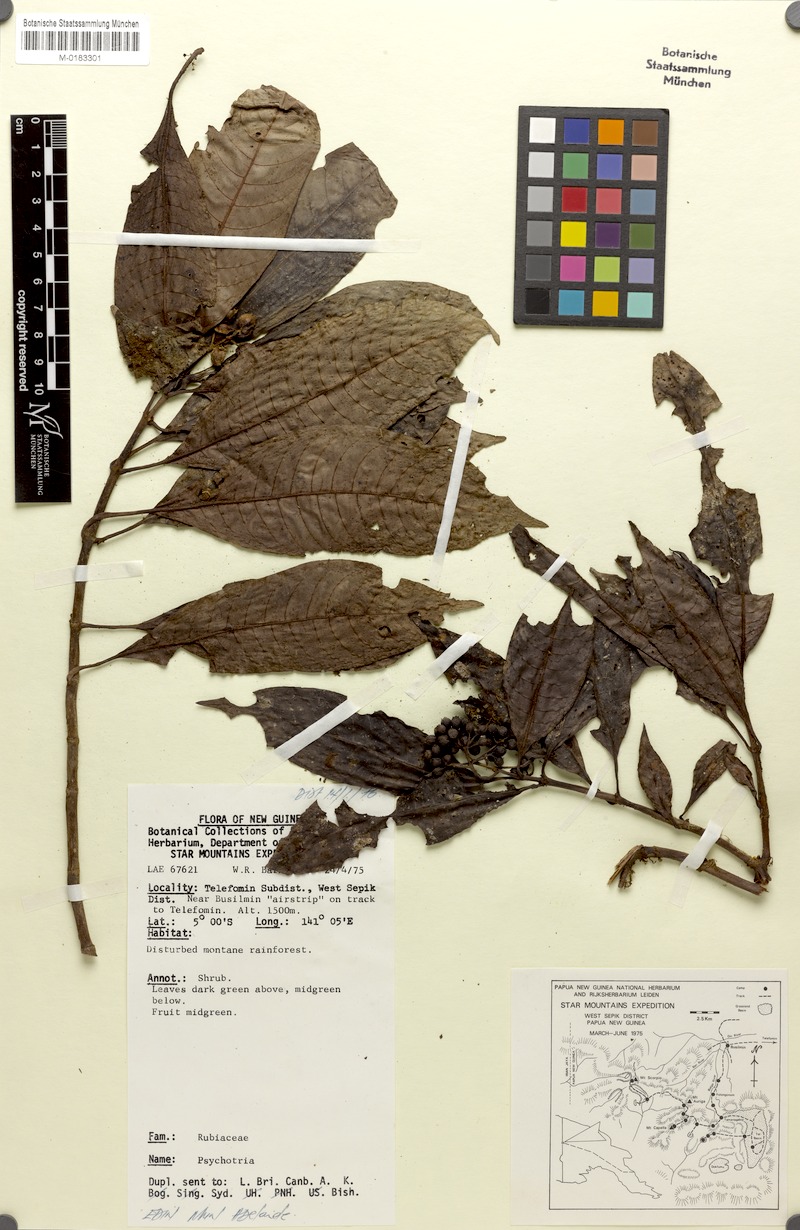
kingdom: Plantae
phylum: Tracheophyta
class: Magnoliopsida
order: Gentianales
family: Rubiaceae
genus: Eumachia
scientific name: Eumachia leptothyrsa
